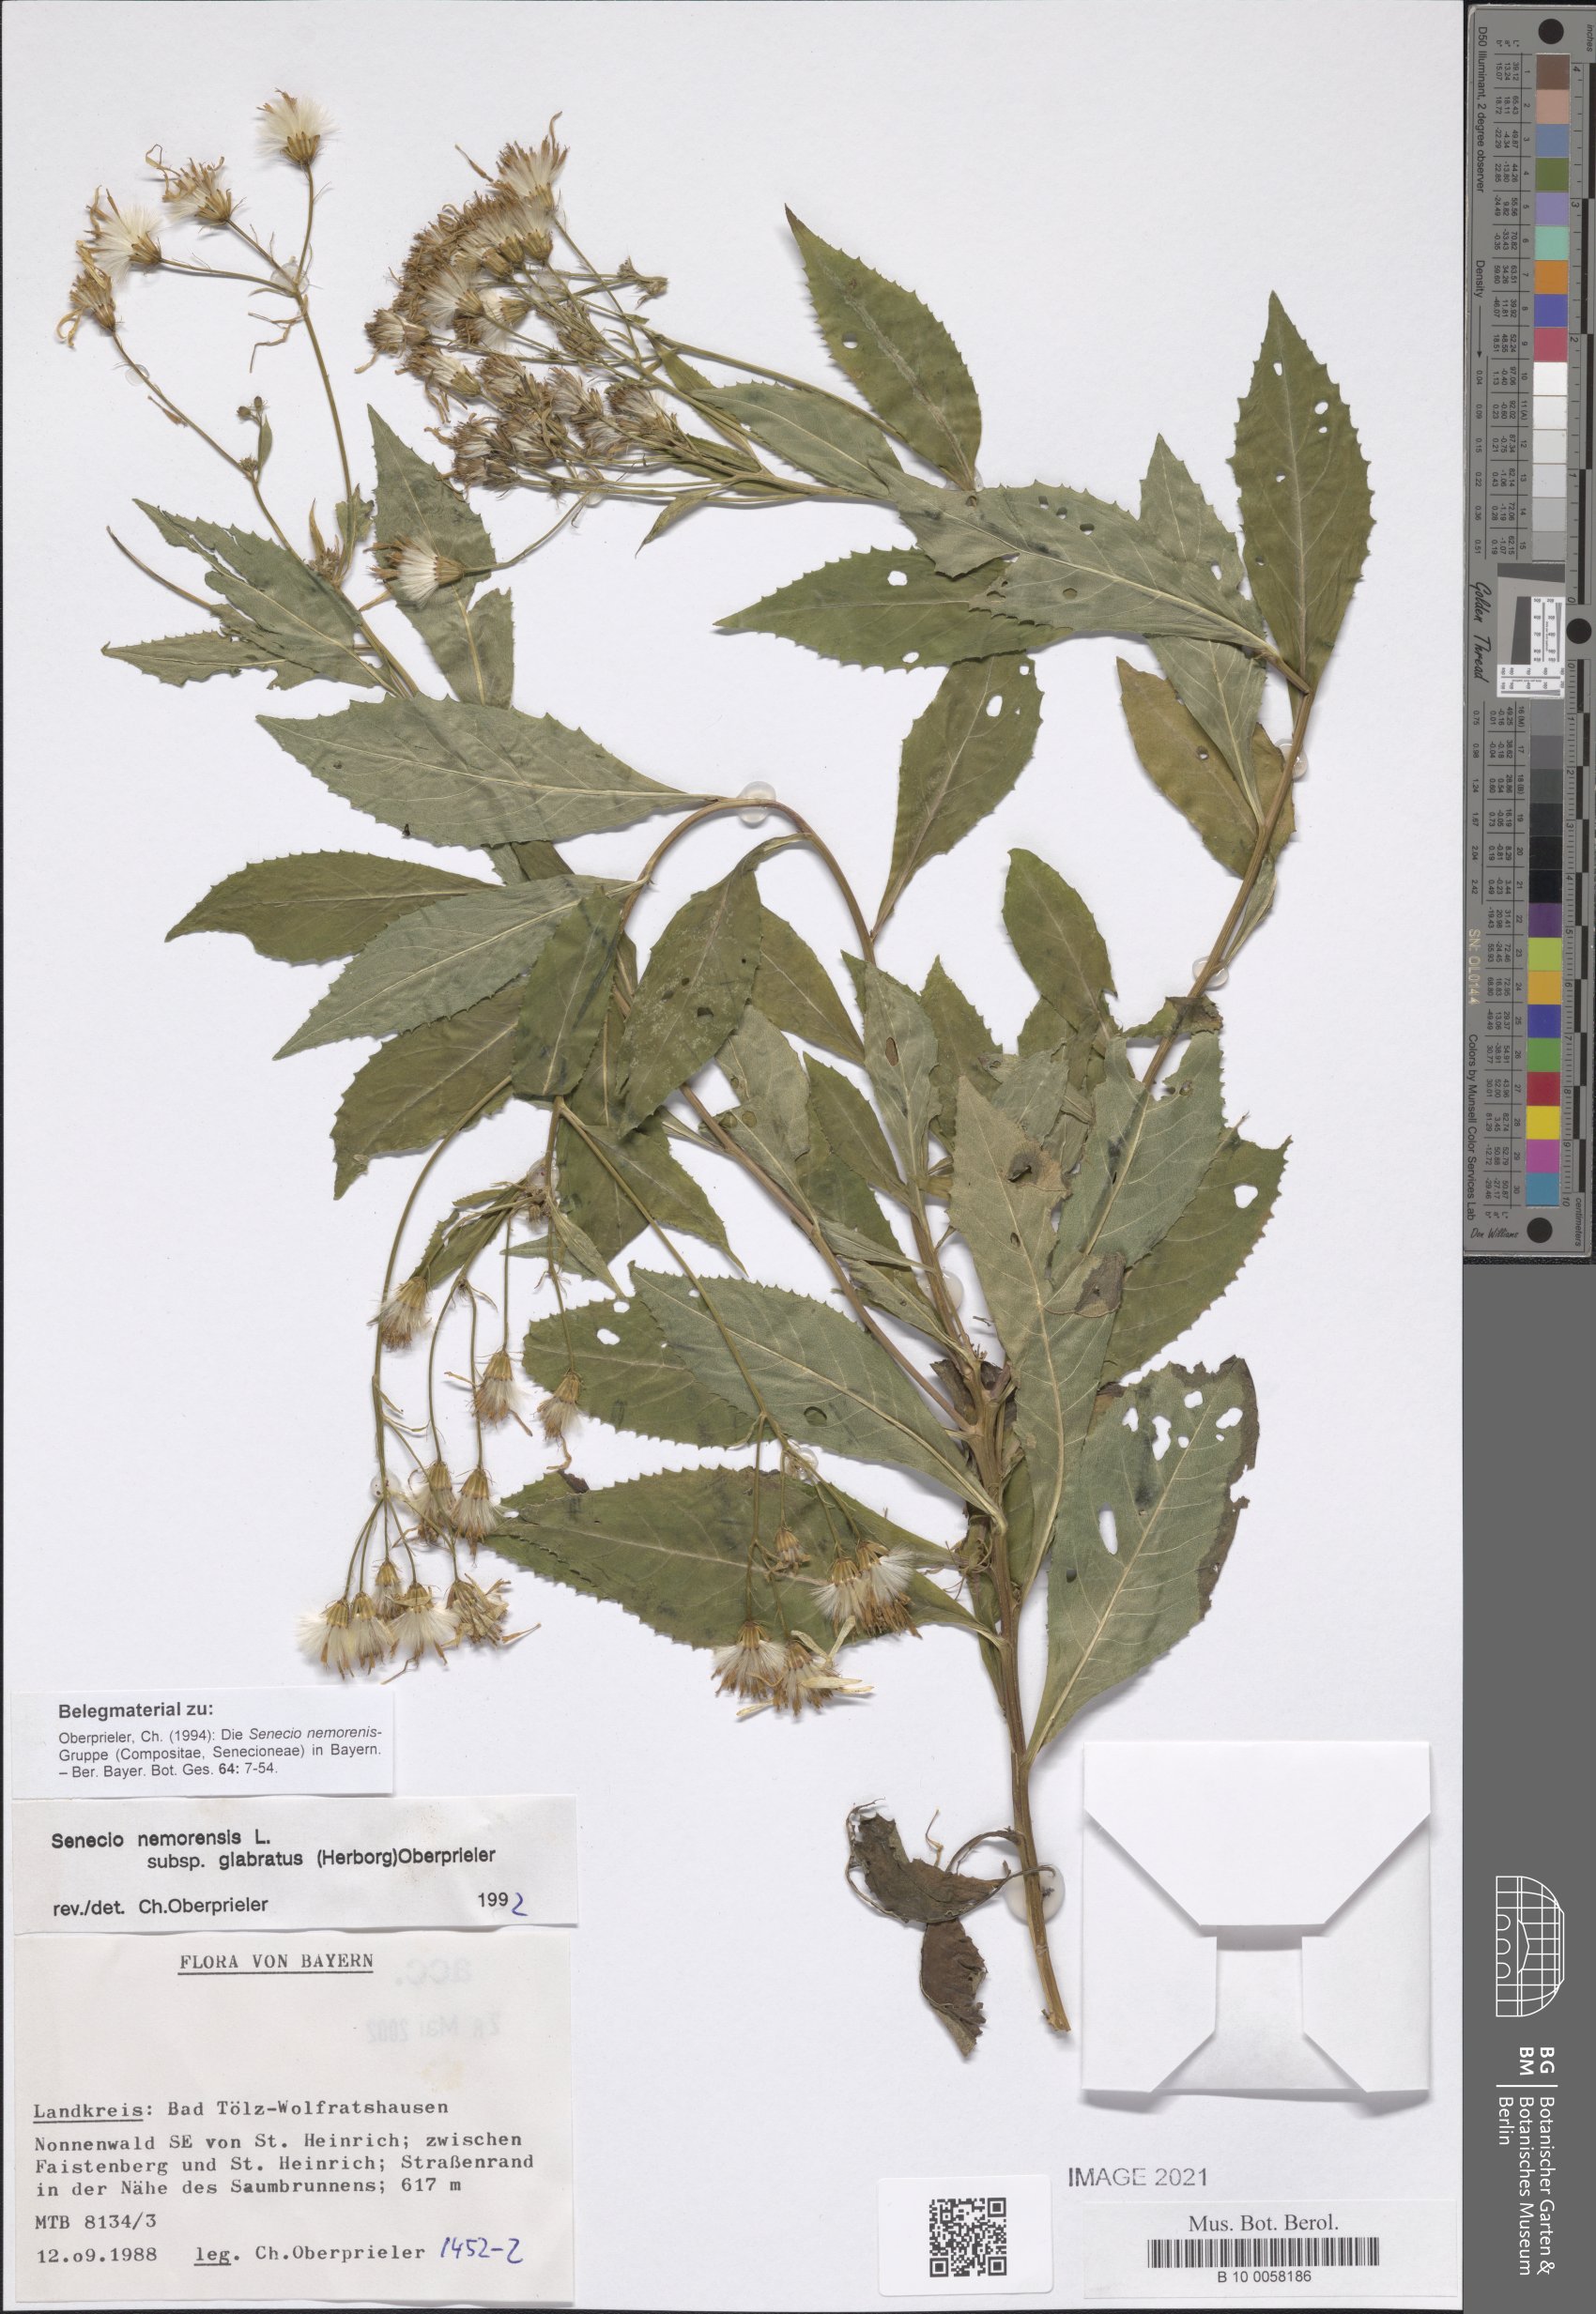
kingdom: Plantae
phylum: Tracheophyta
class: Magnoliopsida
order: Asterales
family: Asteraceae
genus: Senecio
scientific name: Senecio germanicus
